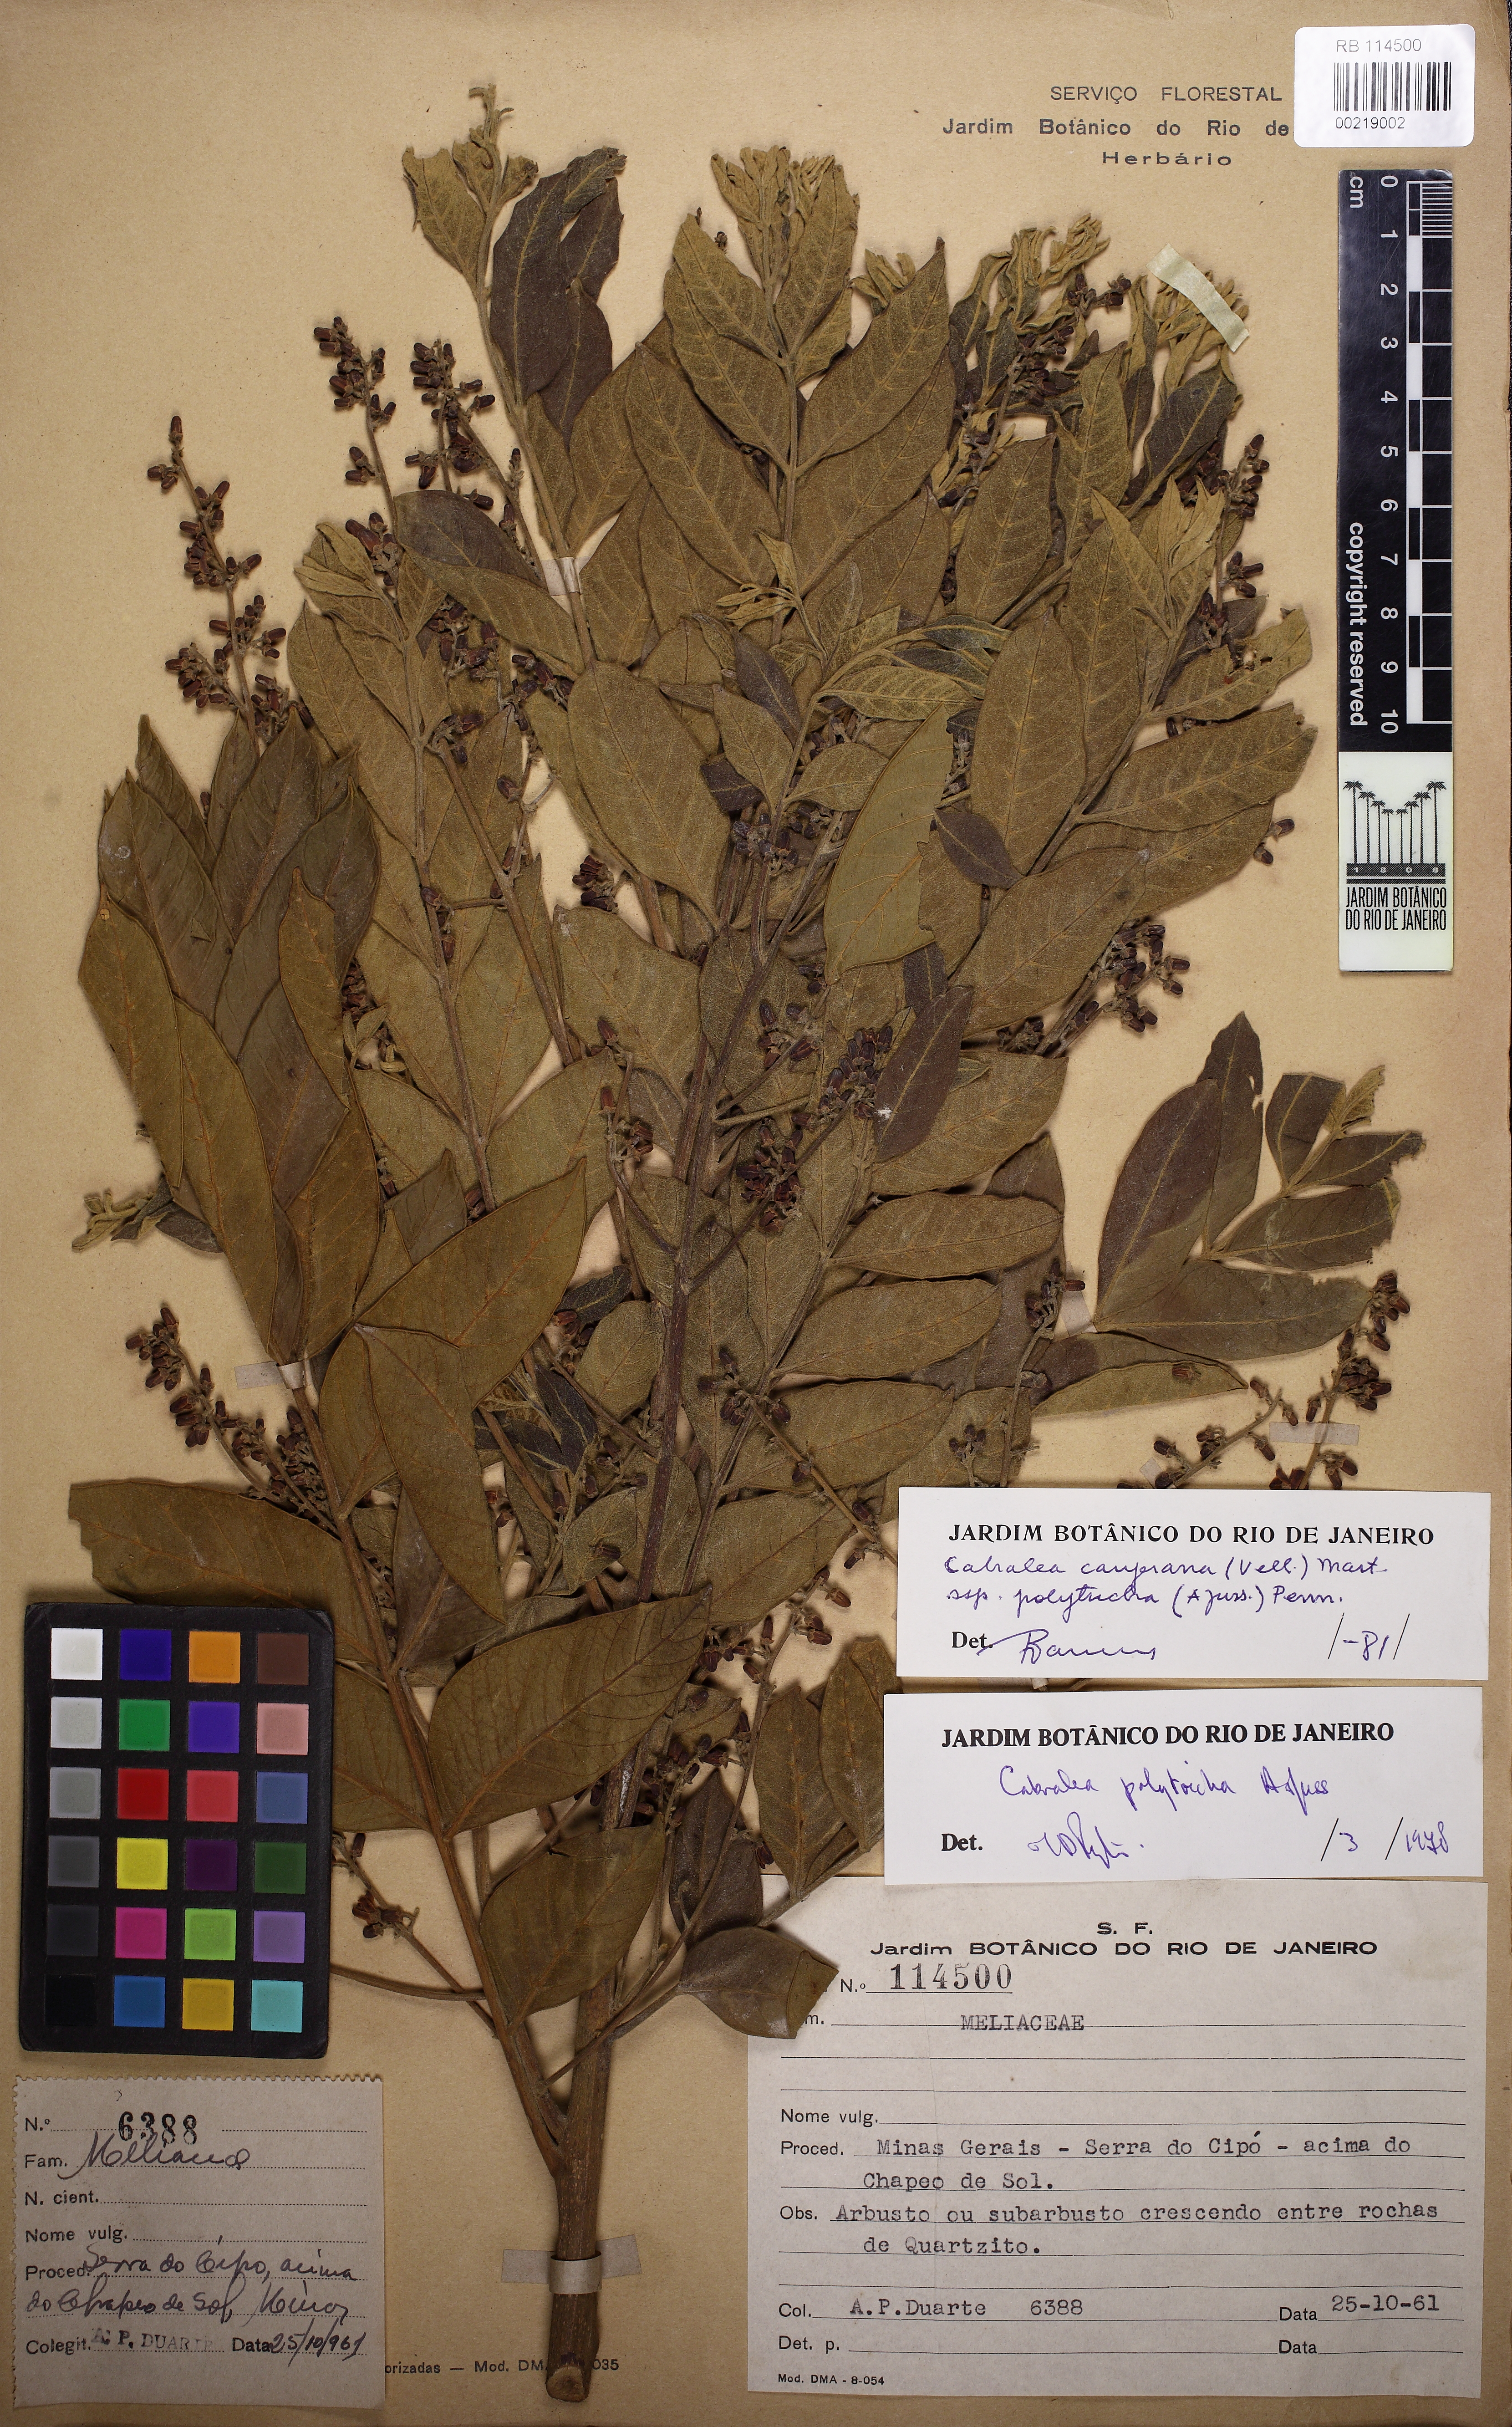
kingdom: Plantae
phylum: Tracheophyta
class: Magnoliopsida
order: Sapindales
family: Meliaceae
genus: Cabralea
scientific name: Cabralea canjerana
